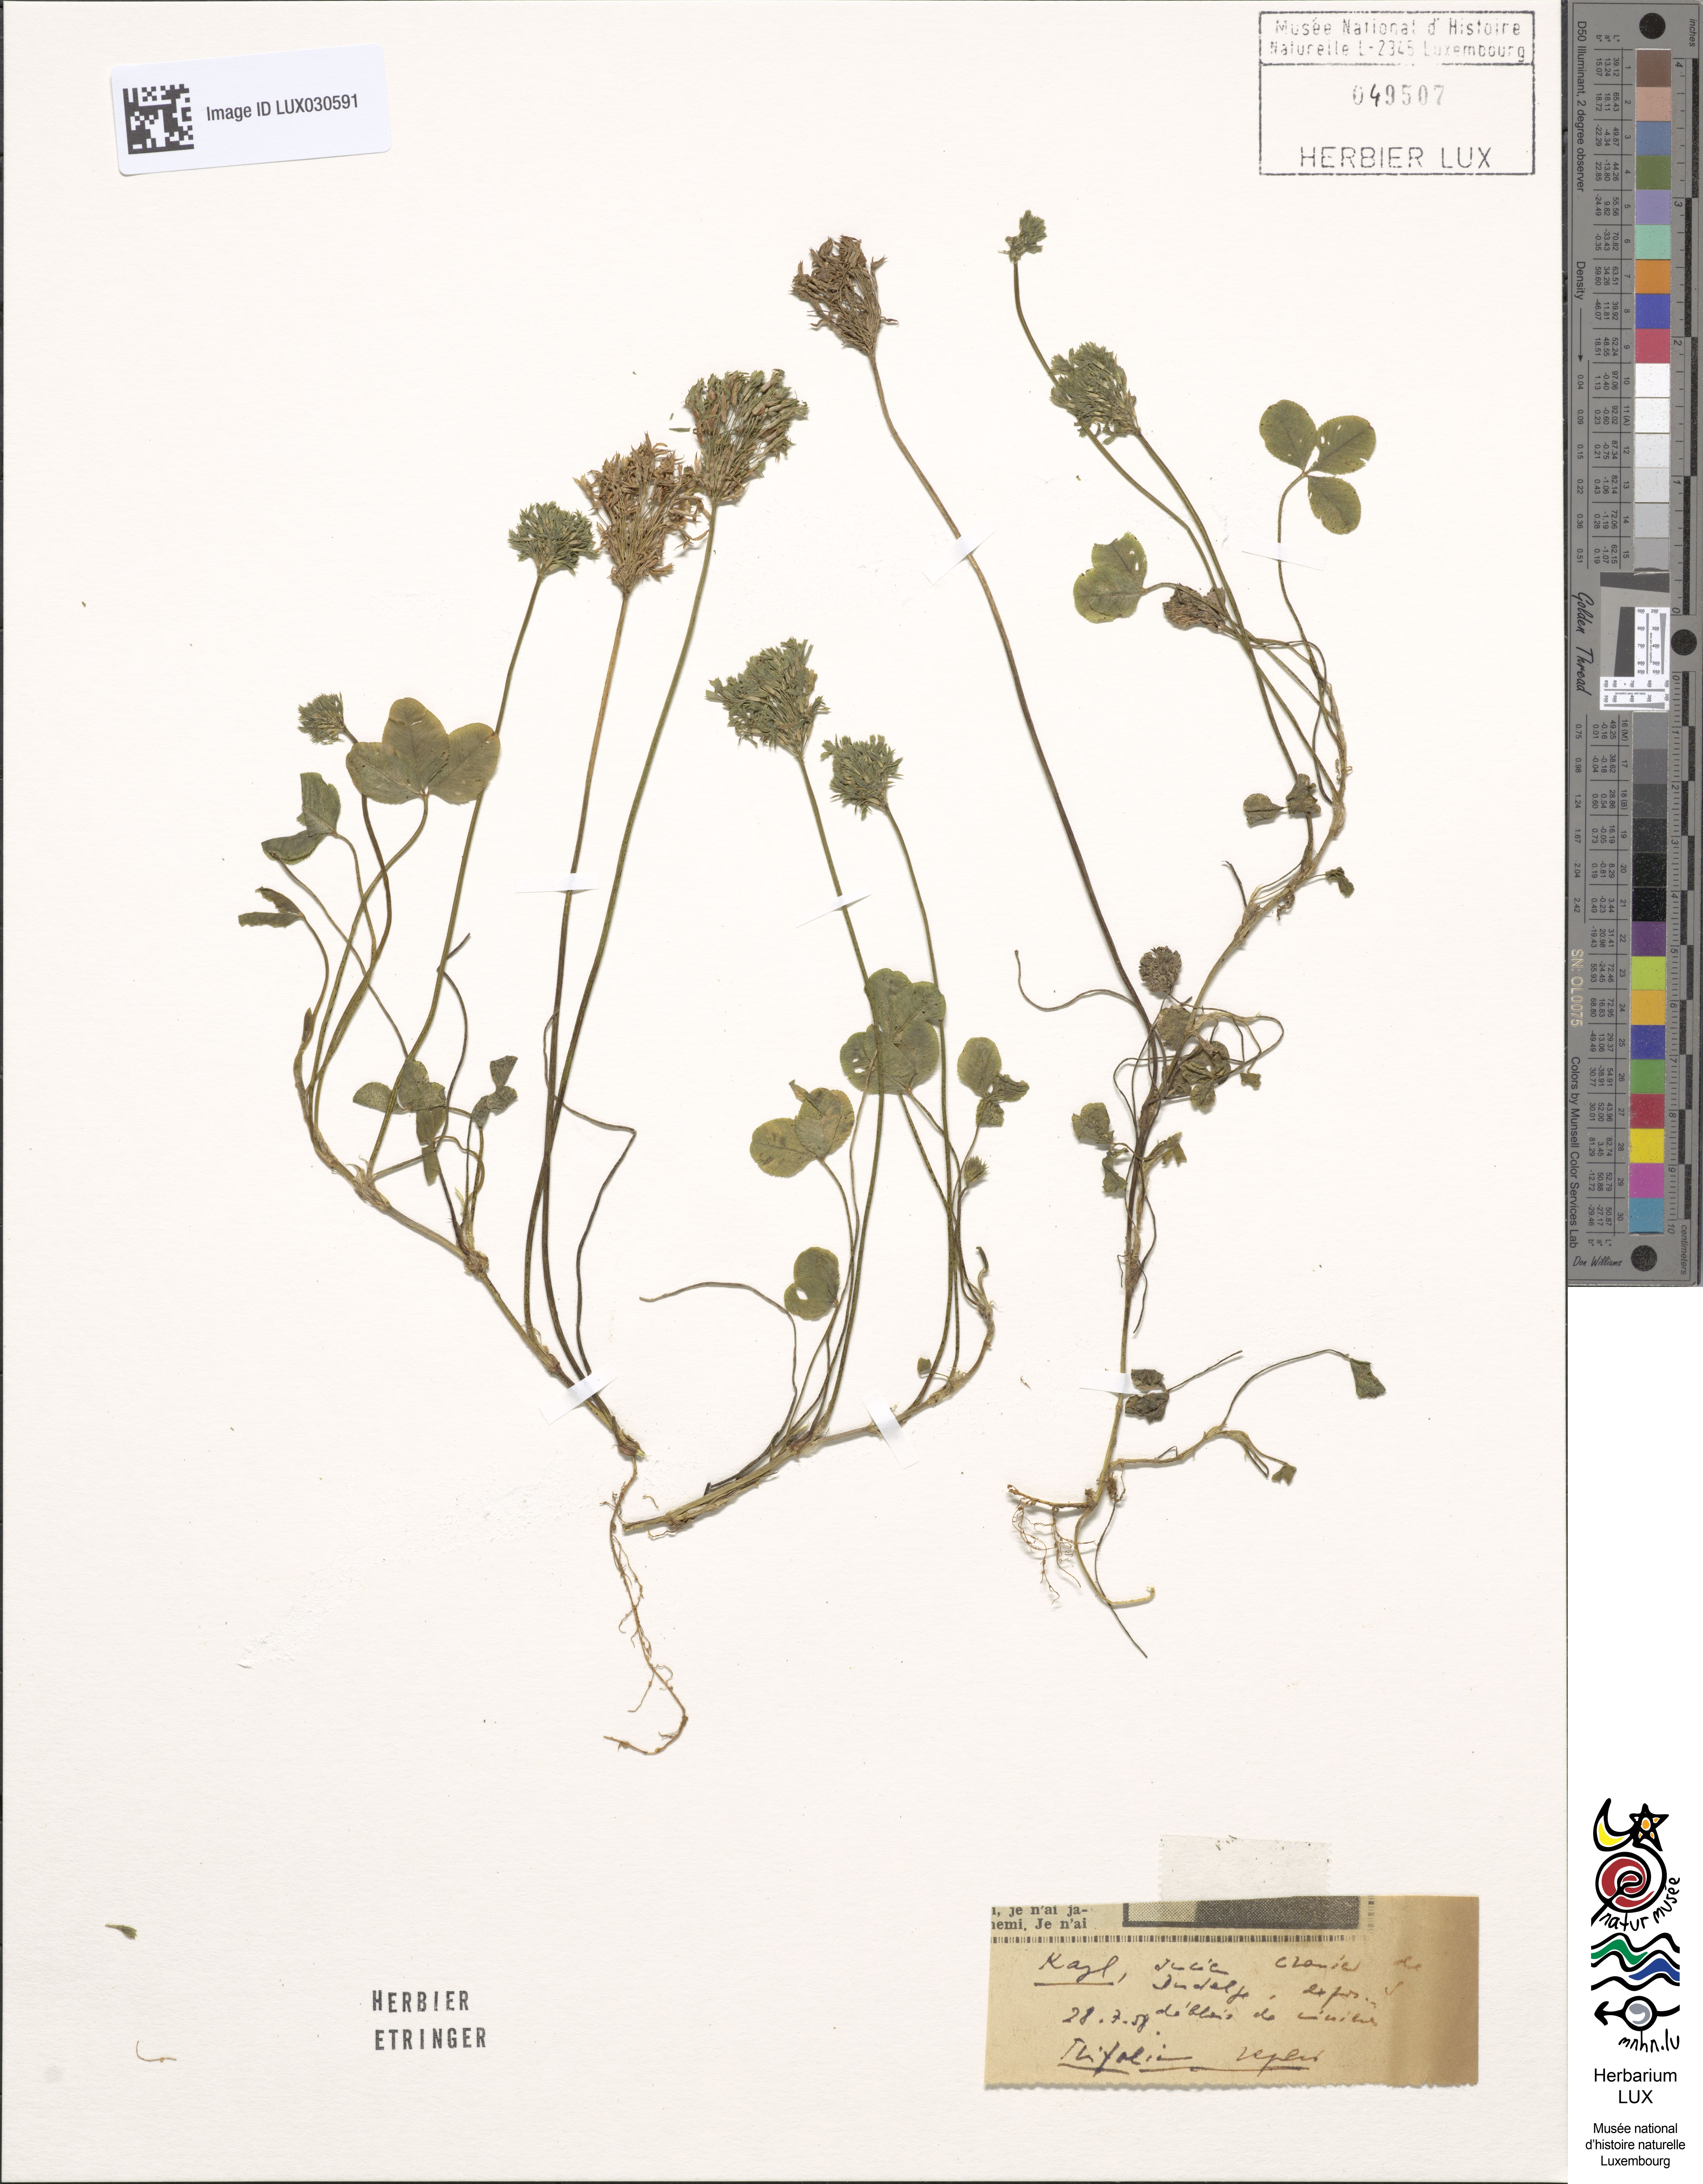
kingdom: Plantae
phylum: Tracheophyta
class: Magnoliopsida
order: Fabales
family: Fabaceae
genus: Trifolium
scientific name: Trifolium repens
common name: White clover
